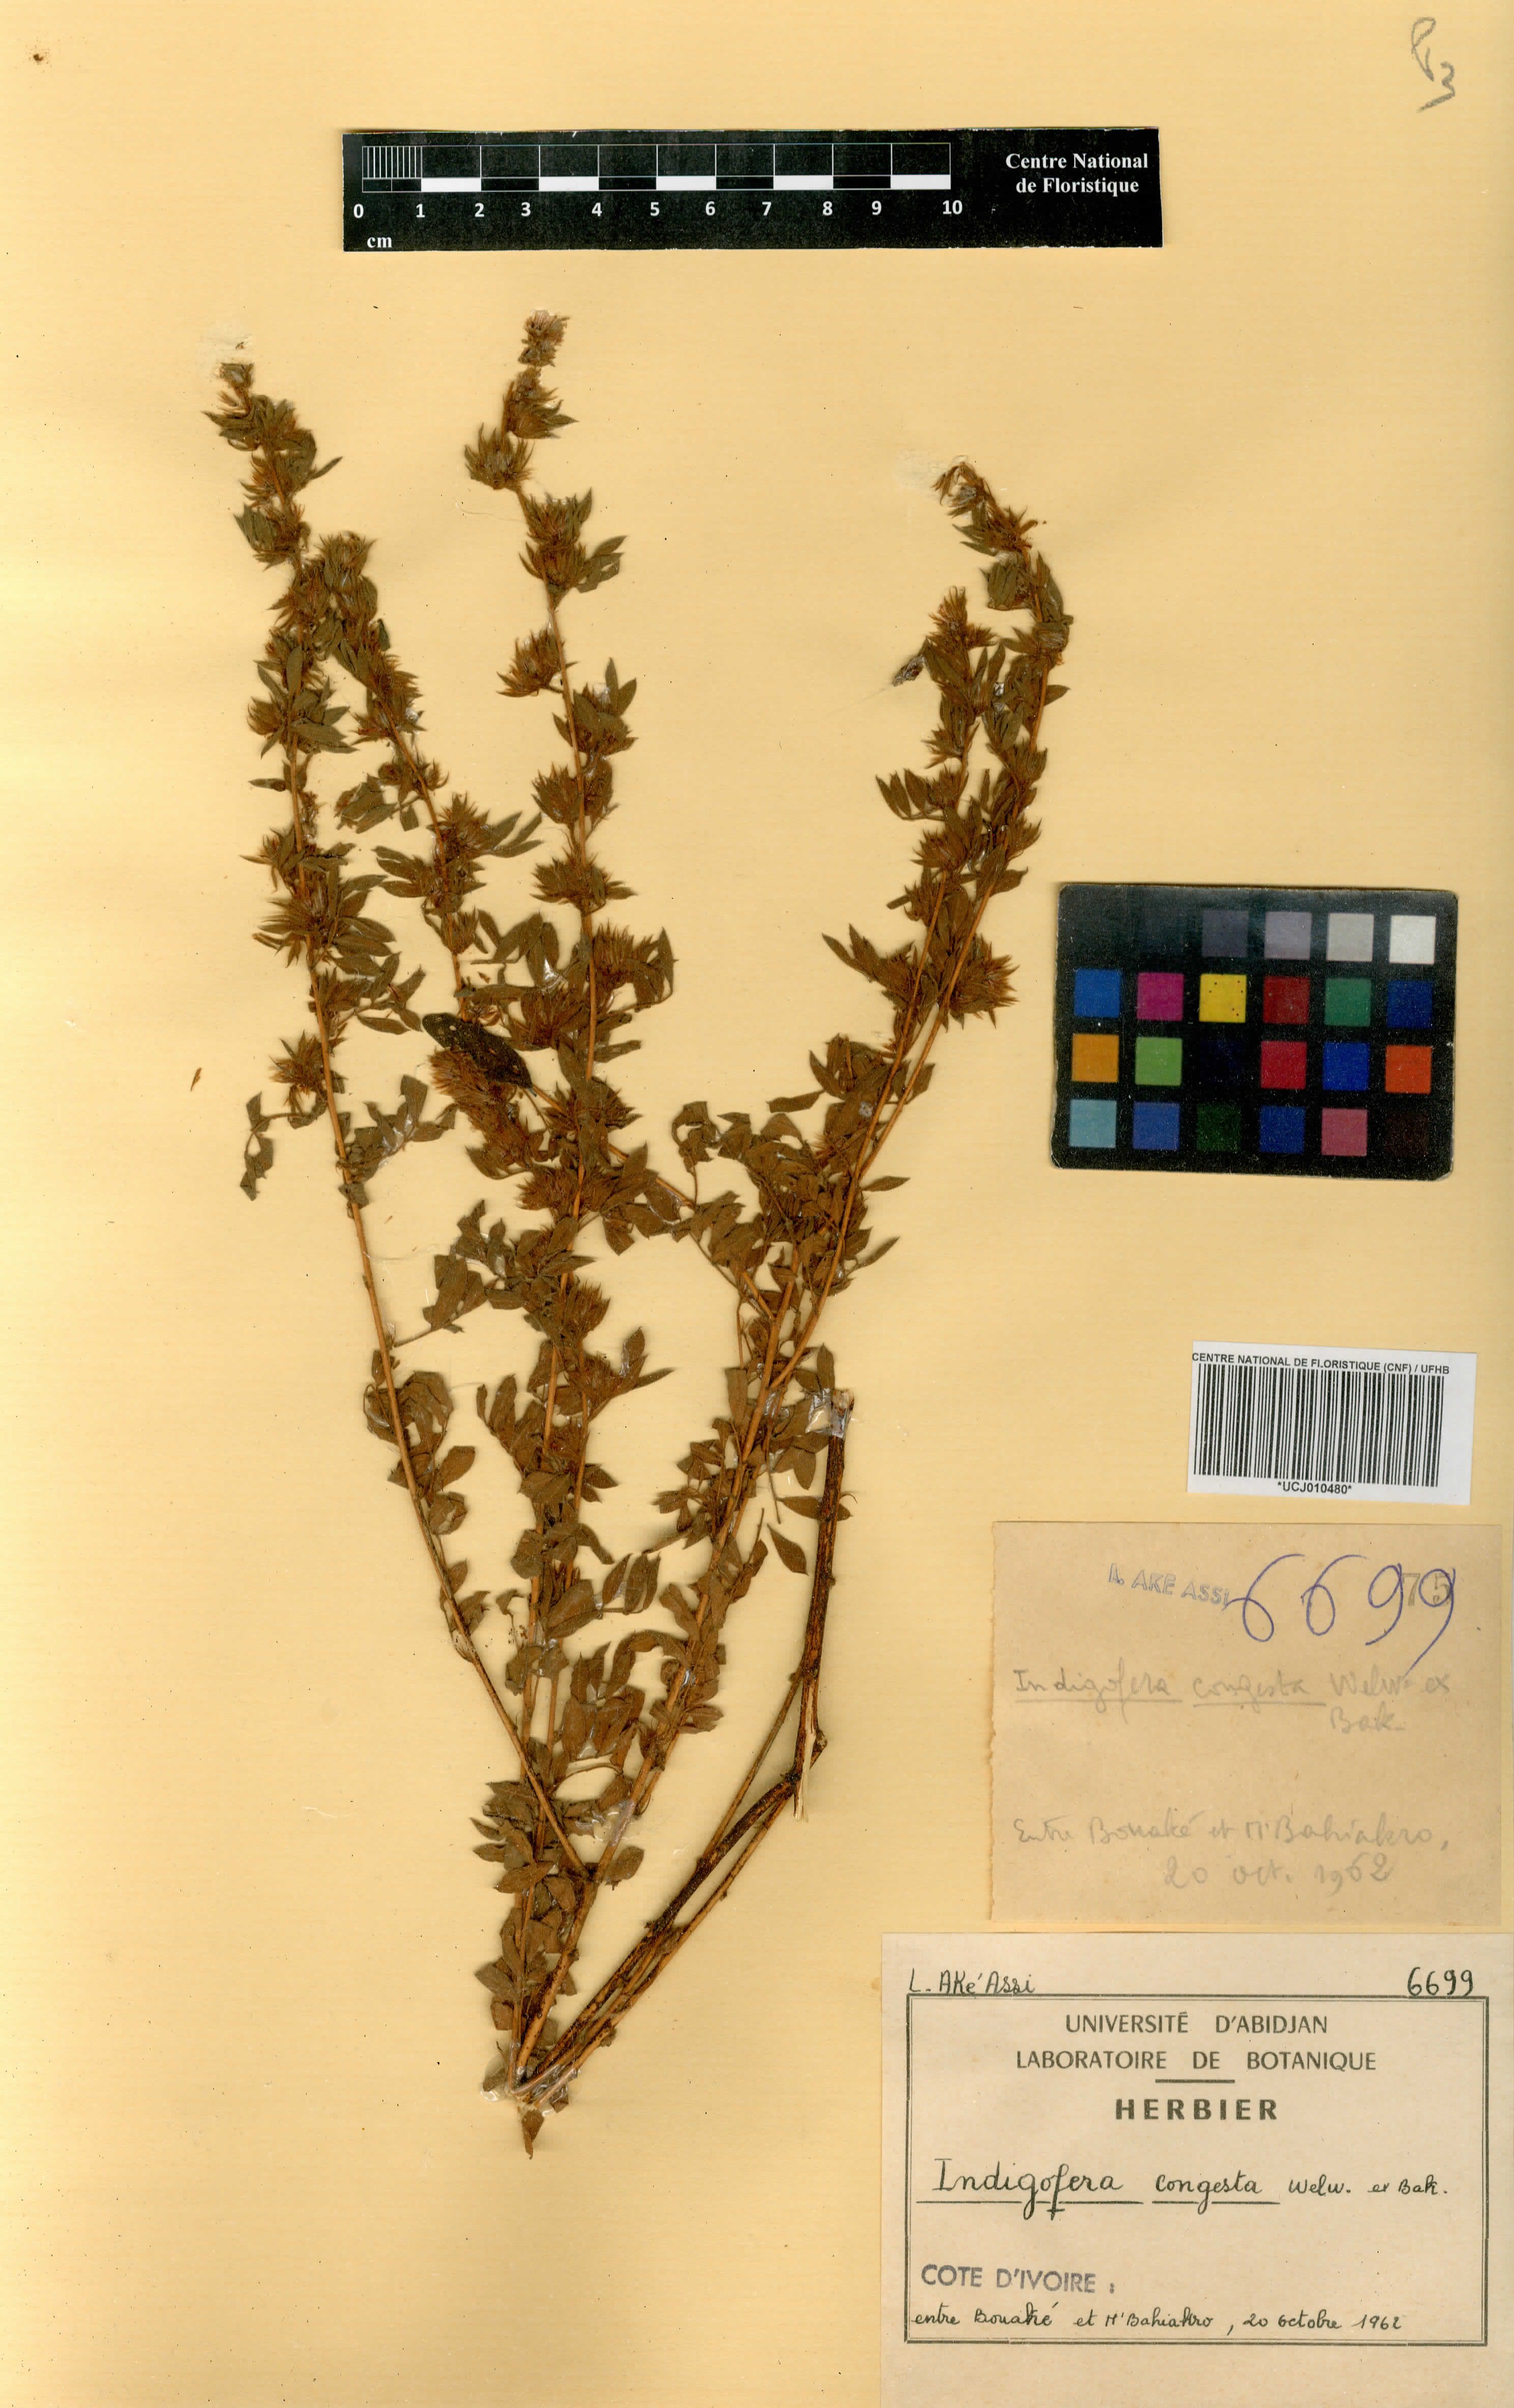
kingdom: Plantae
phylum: Tracheophyta
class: Magnoliopsida
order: Fabales
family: Fabaceae
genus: Indigofera
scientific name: Indigofera congesta
